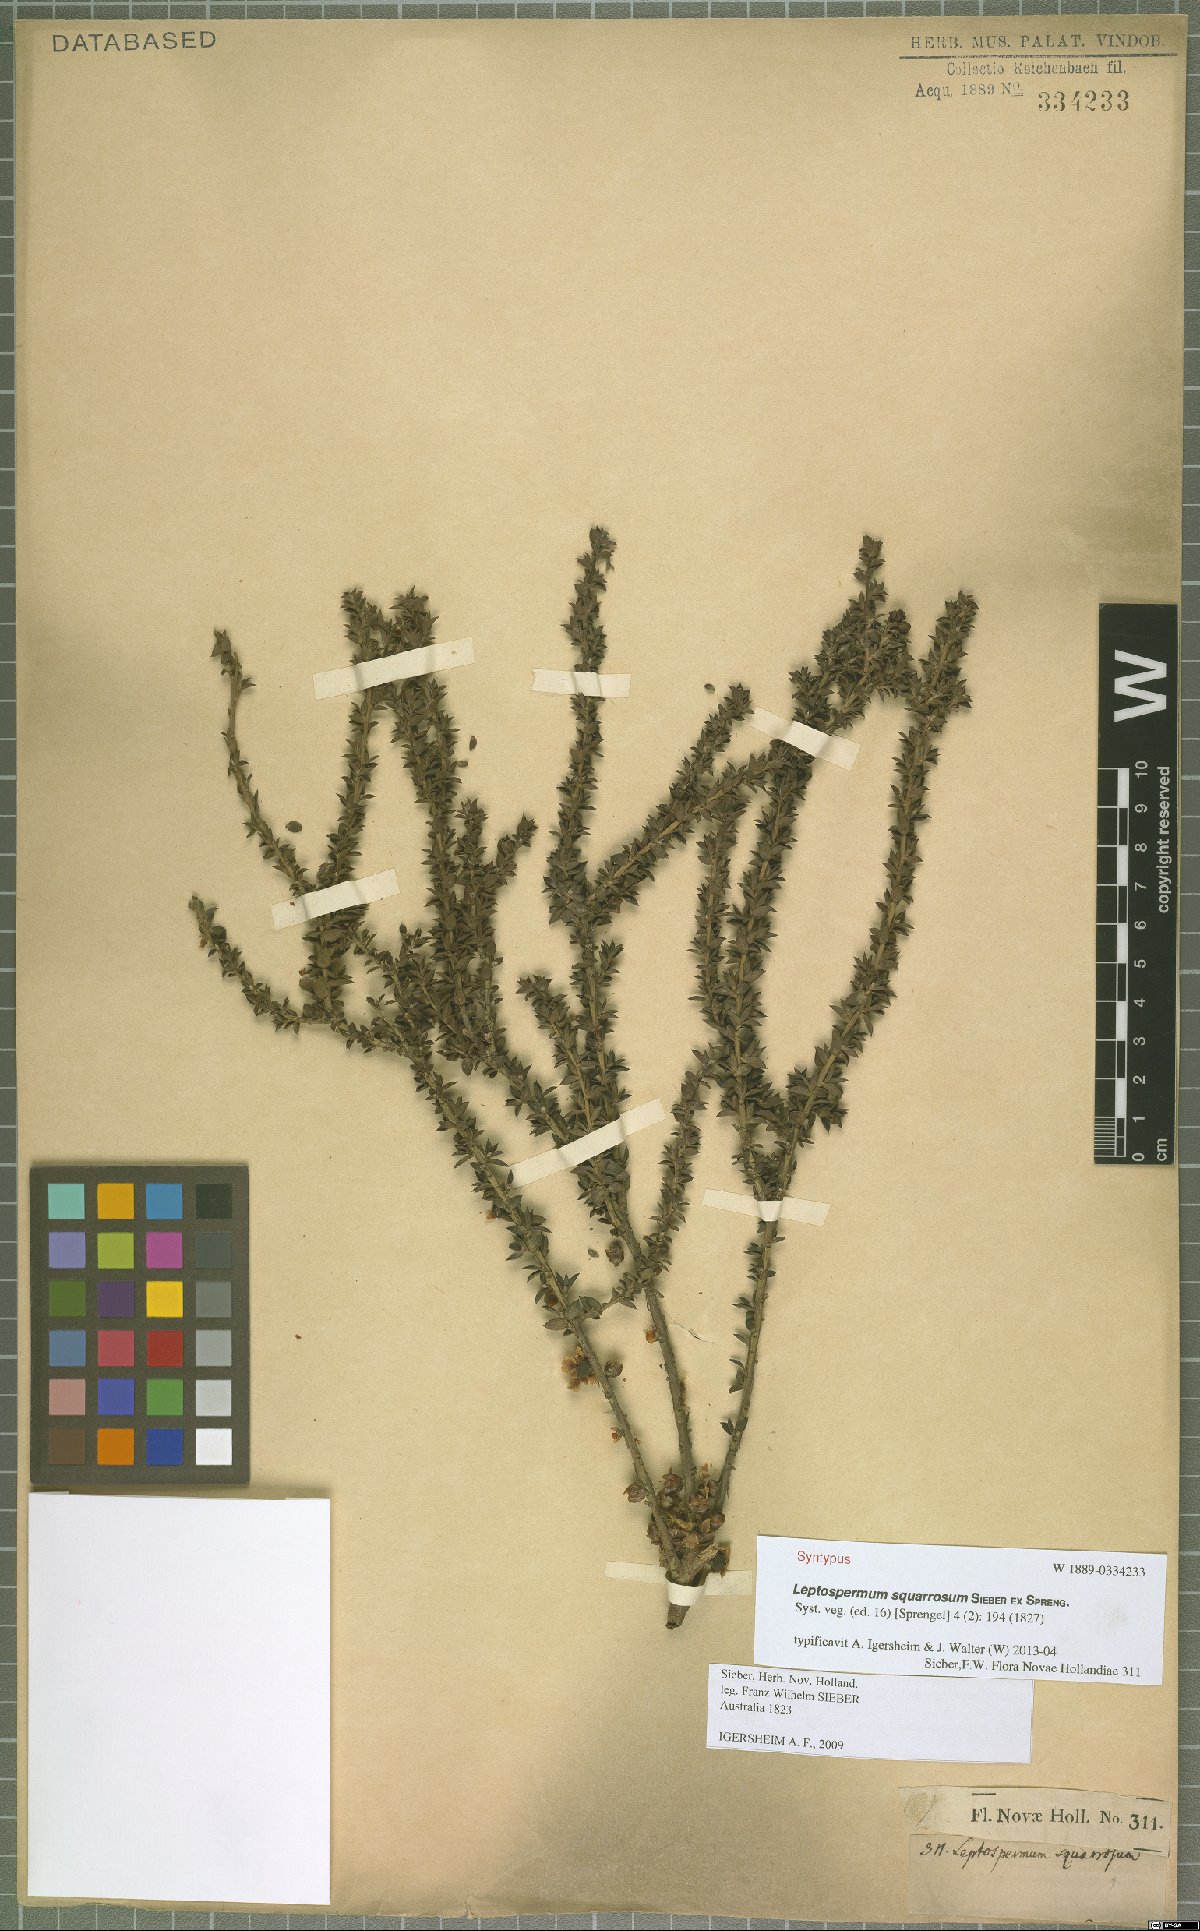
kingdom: Plantae
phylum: Tracheophyta
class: Magnoliopsida
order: Myrtales
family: Myrtaceae
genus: Leptospermum
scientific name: Leptospermum squarrosum
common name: Peach-blossom teatree
